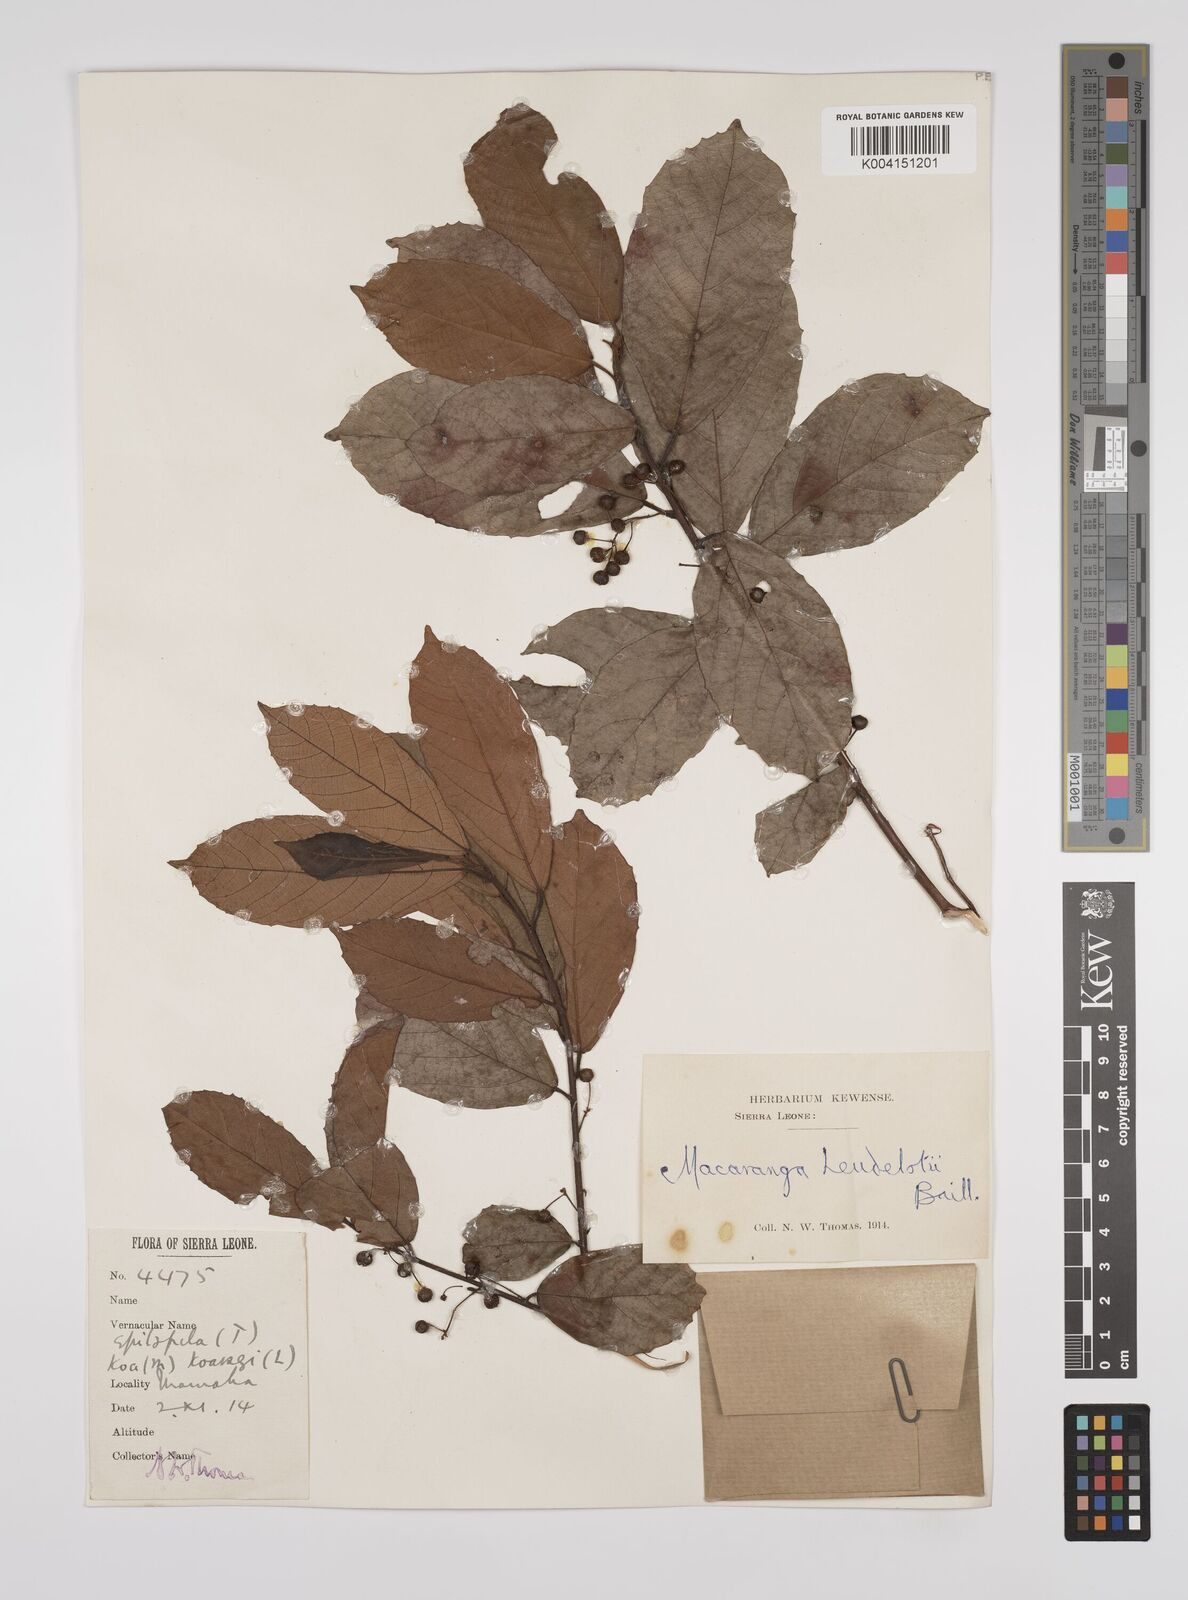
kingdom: Plantae
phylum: Tracheophyta
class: Magnoliopsida
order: Malpighiales
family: Euphorbiaceae
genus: Macaranga
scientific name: Macaranga heudelotii
